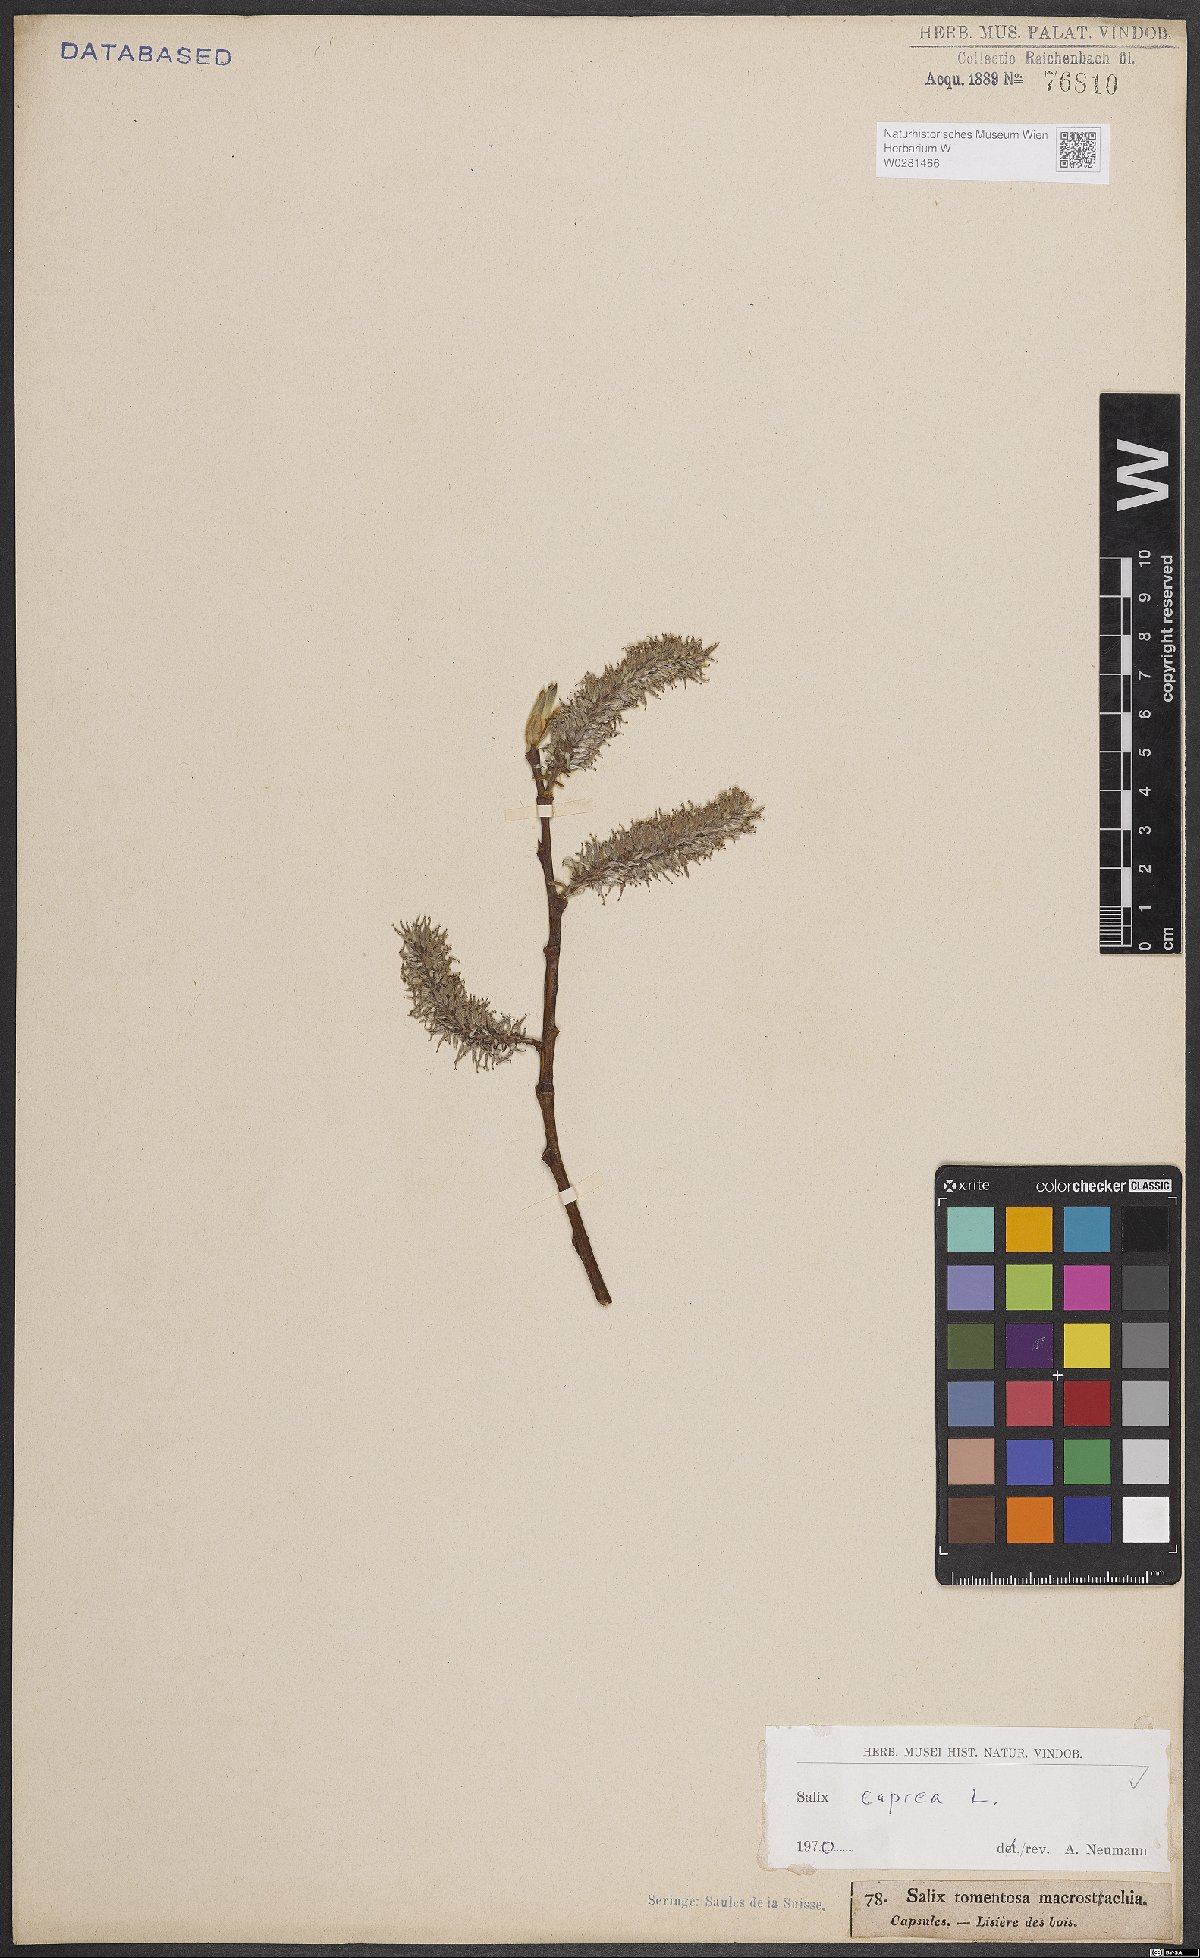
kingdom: Plantae
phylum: Tracheophyta
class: Magnoliopsida
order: Malpighiales
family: Salicaceae
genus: Salix
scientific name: Salix caprea
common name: Goat willow
